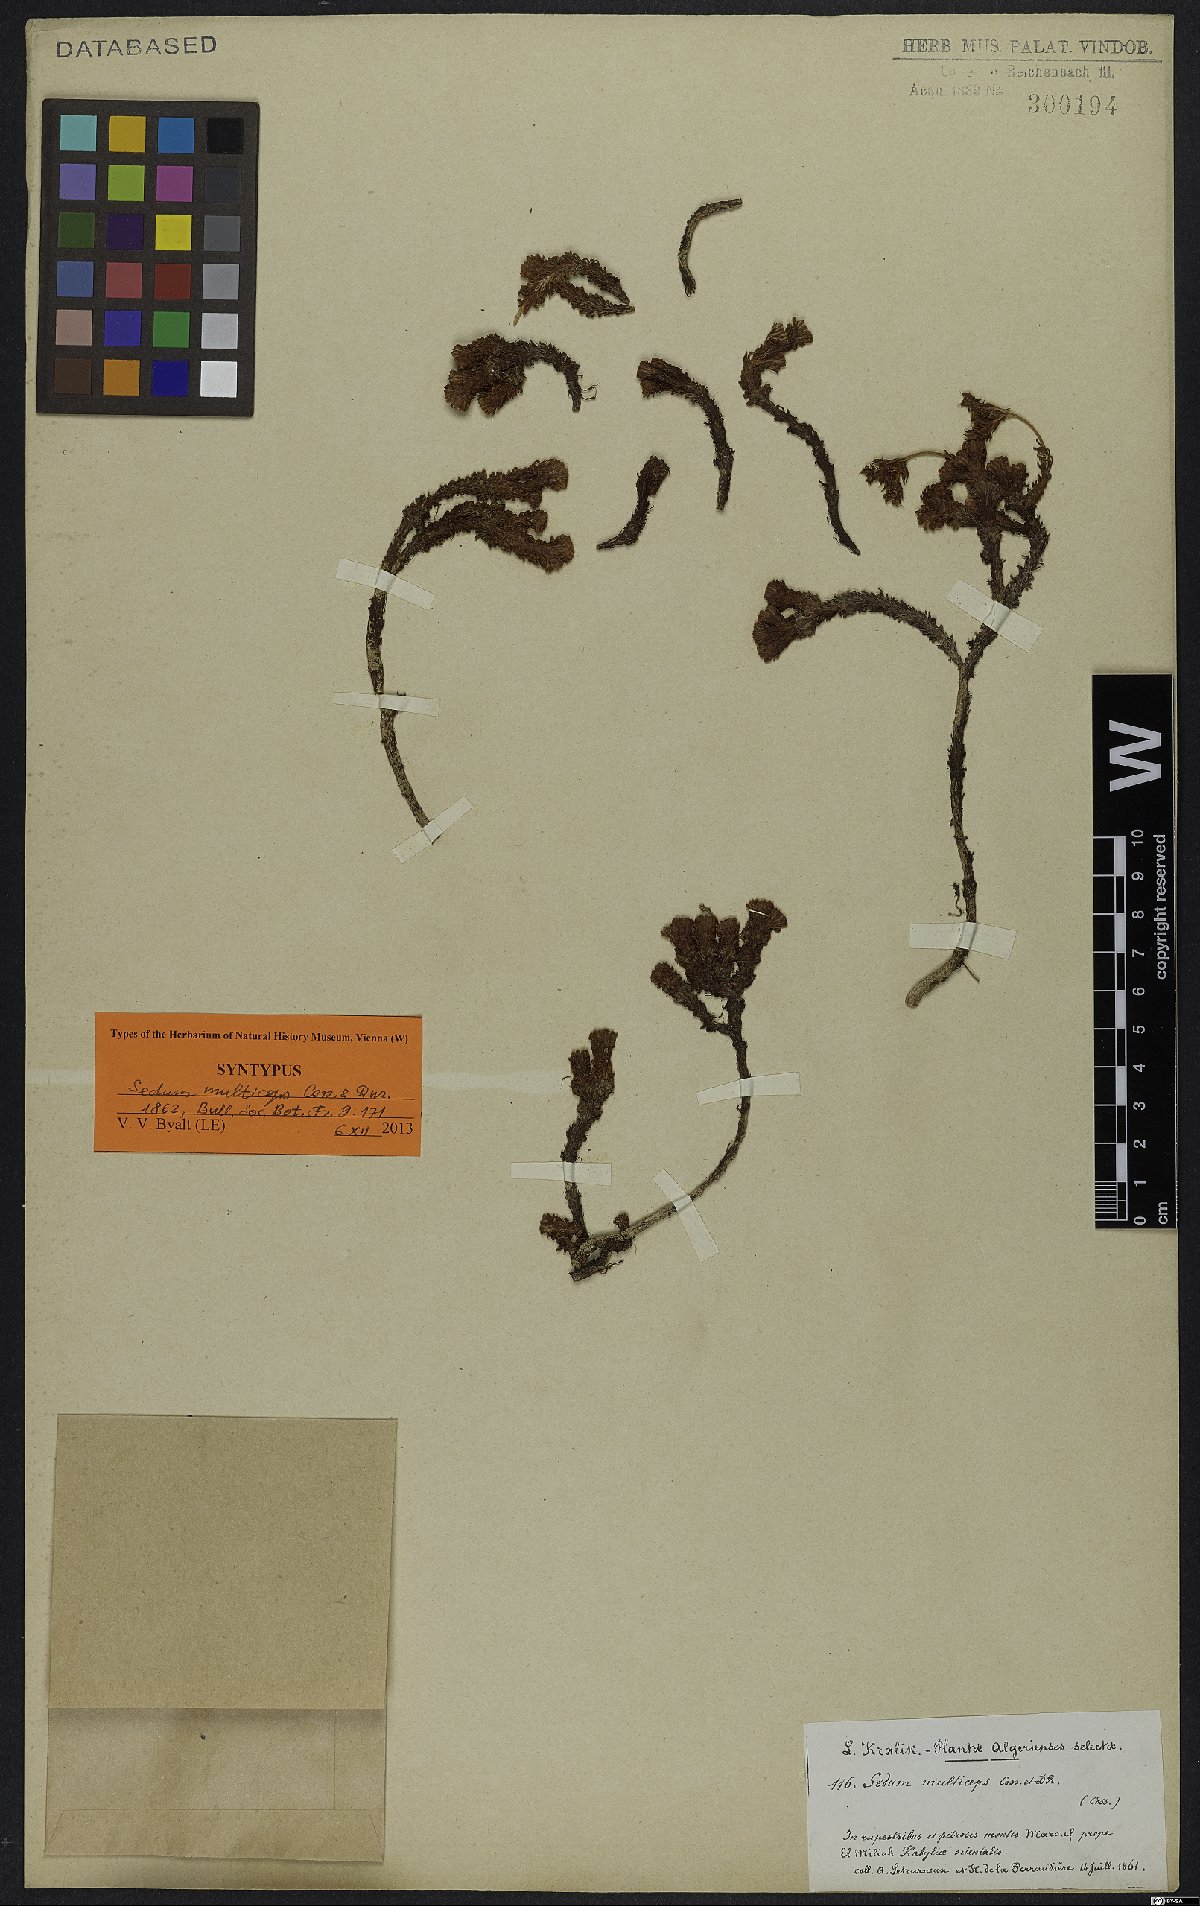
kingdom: Plantae
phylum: Tracheophyta
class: Magnoliopsida
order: Saxifragales
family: Crassulaceae
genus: Sedum
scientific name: Sedum multiceps
